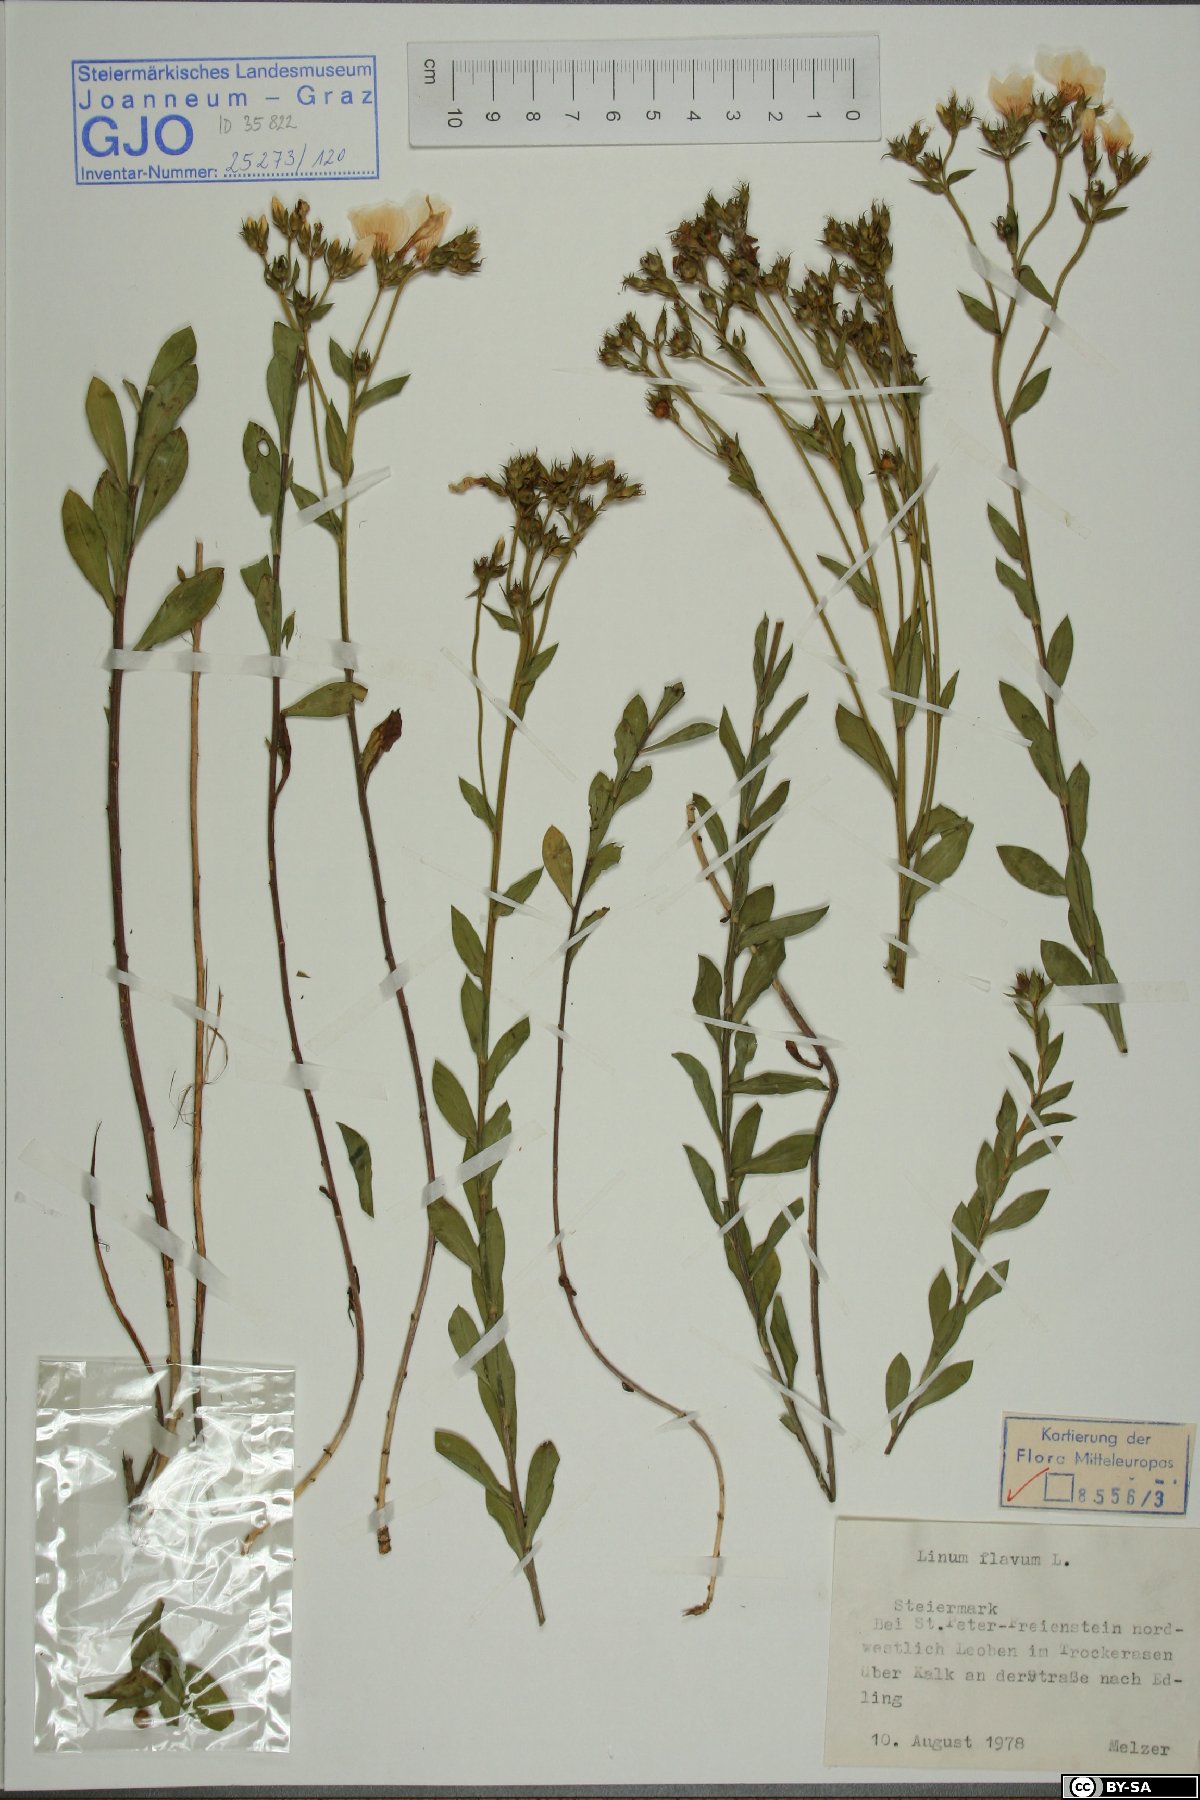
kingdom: Plantae
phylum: Tracheophyta
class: Magnoliopsida
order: Malpighiales
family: Linaceae
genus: Linum
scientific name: Linum flavum
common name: Yellow flax
